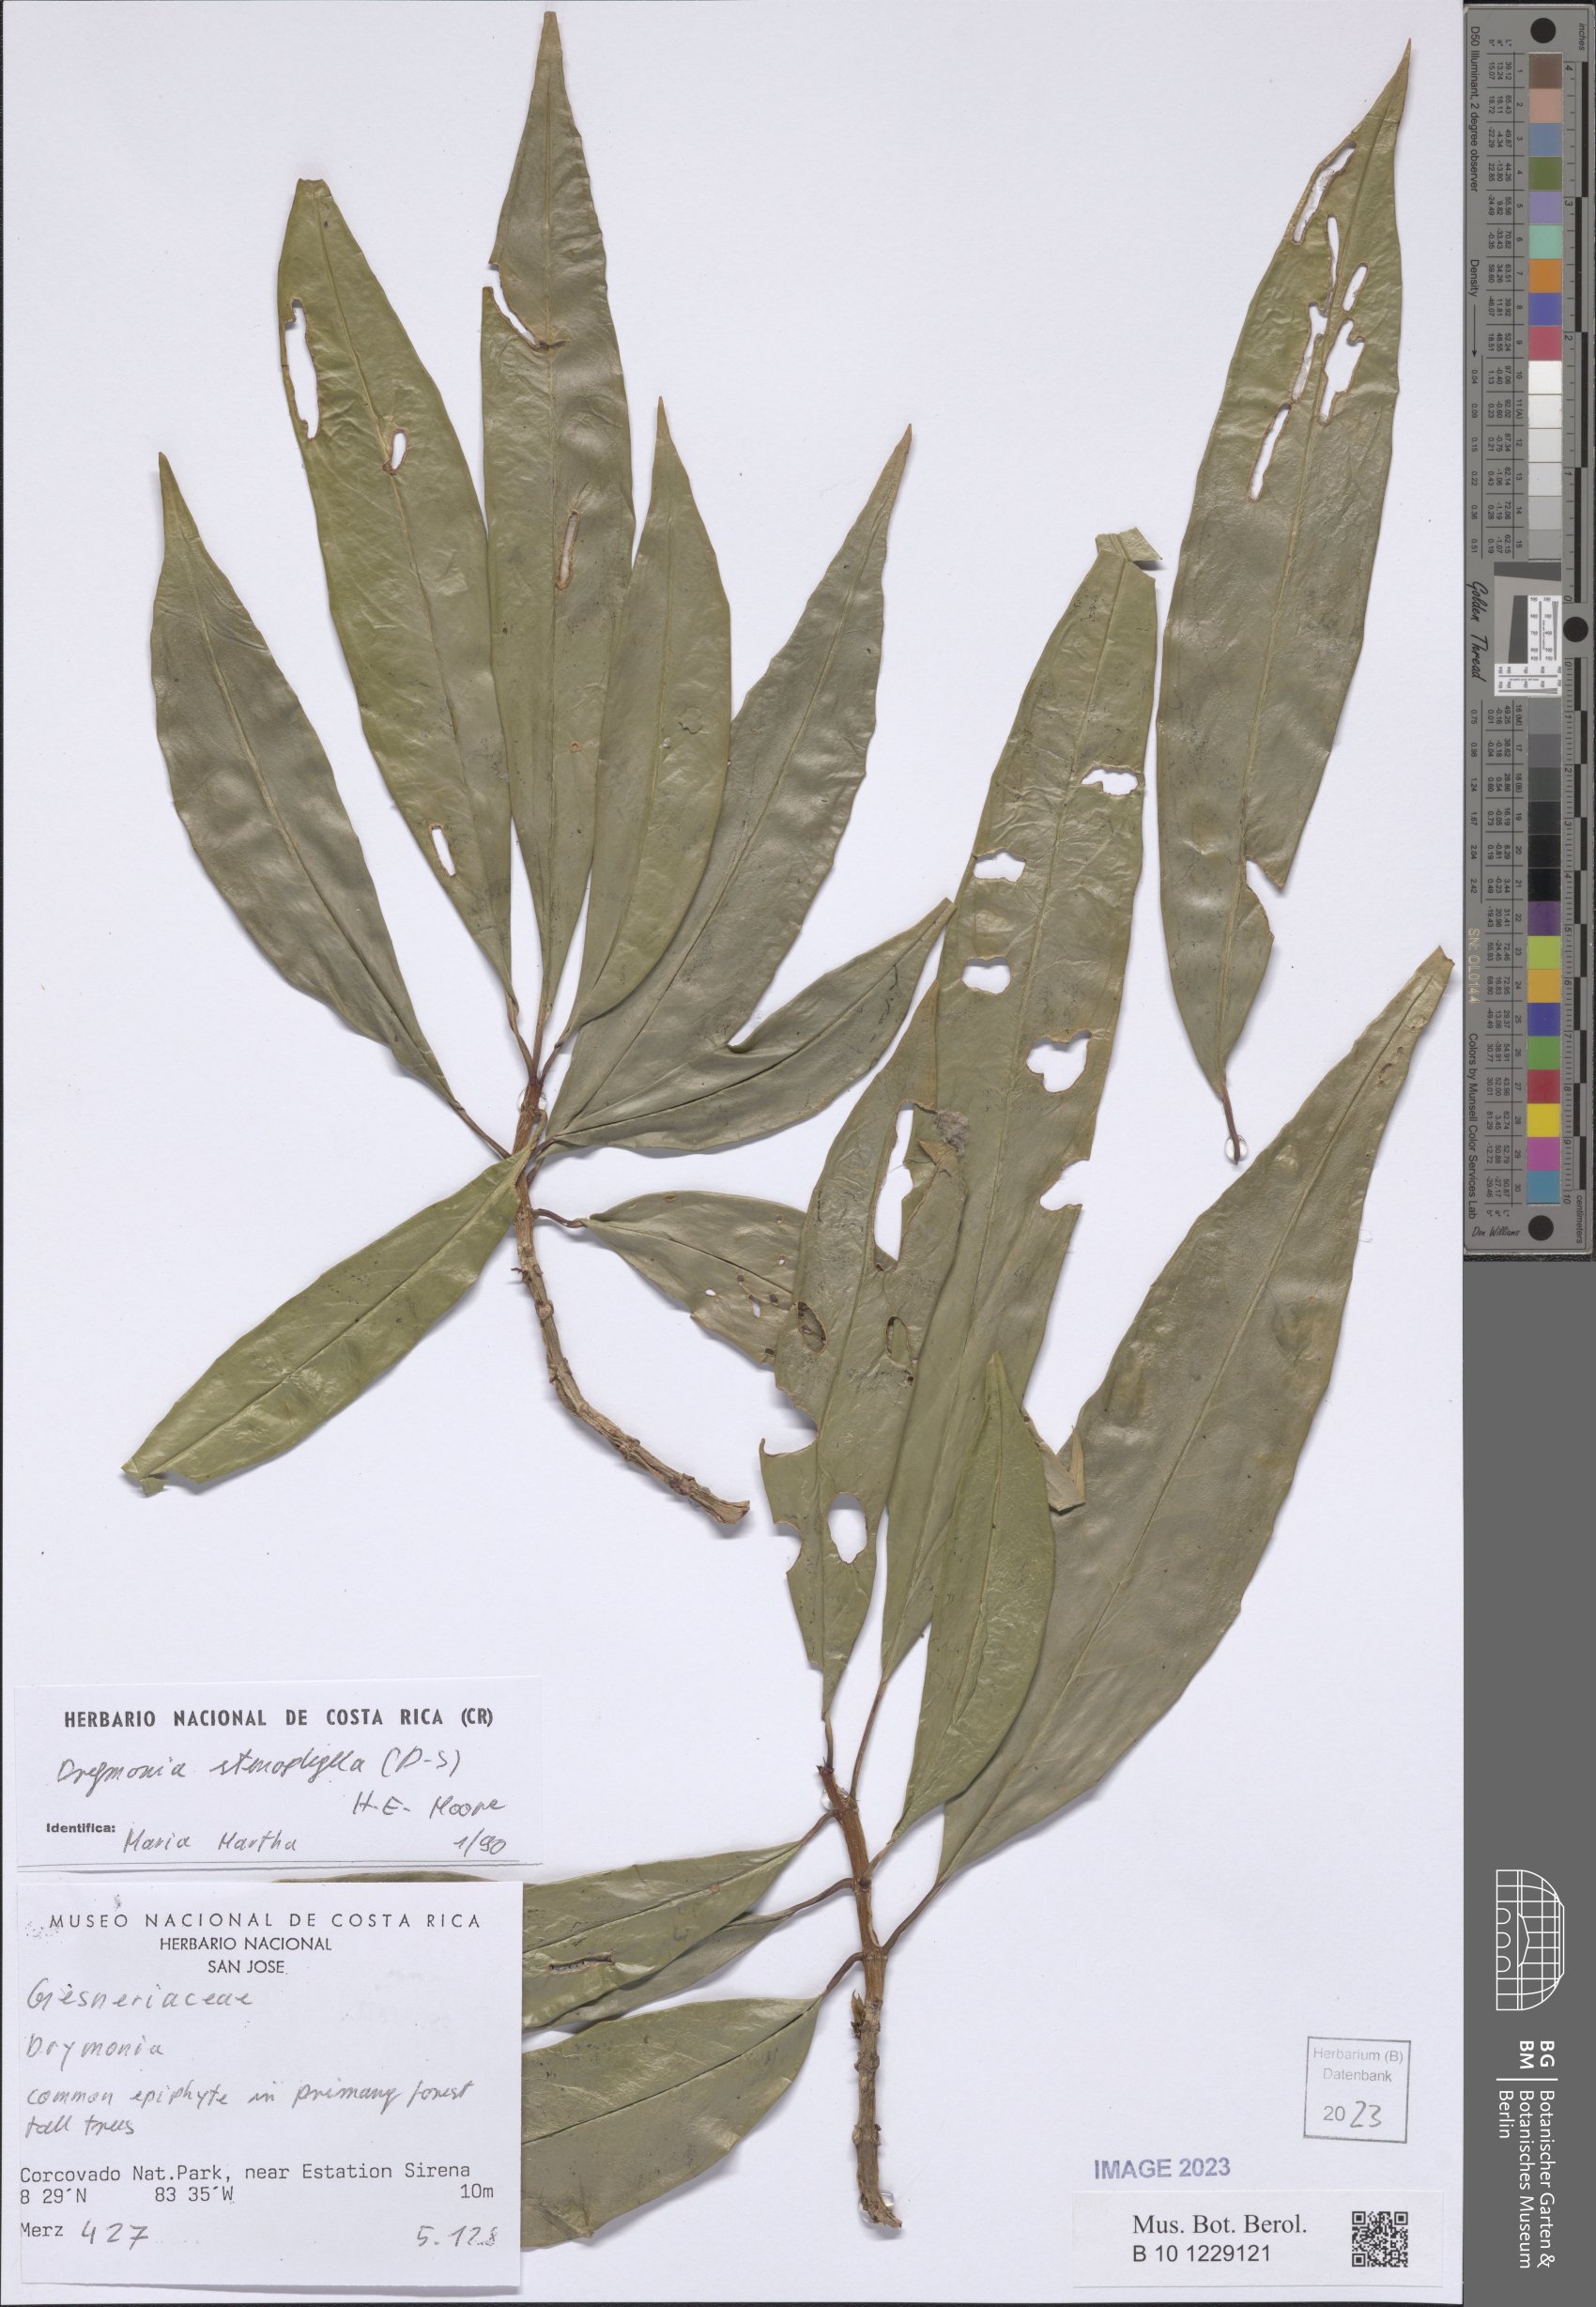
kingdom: Plantae
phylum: Tracheophyta
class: Magnoliopsida
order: Lamiales
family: Gesneriaceae
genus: Drymonia
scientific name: Drymonia stenophylla
